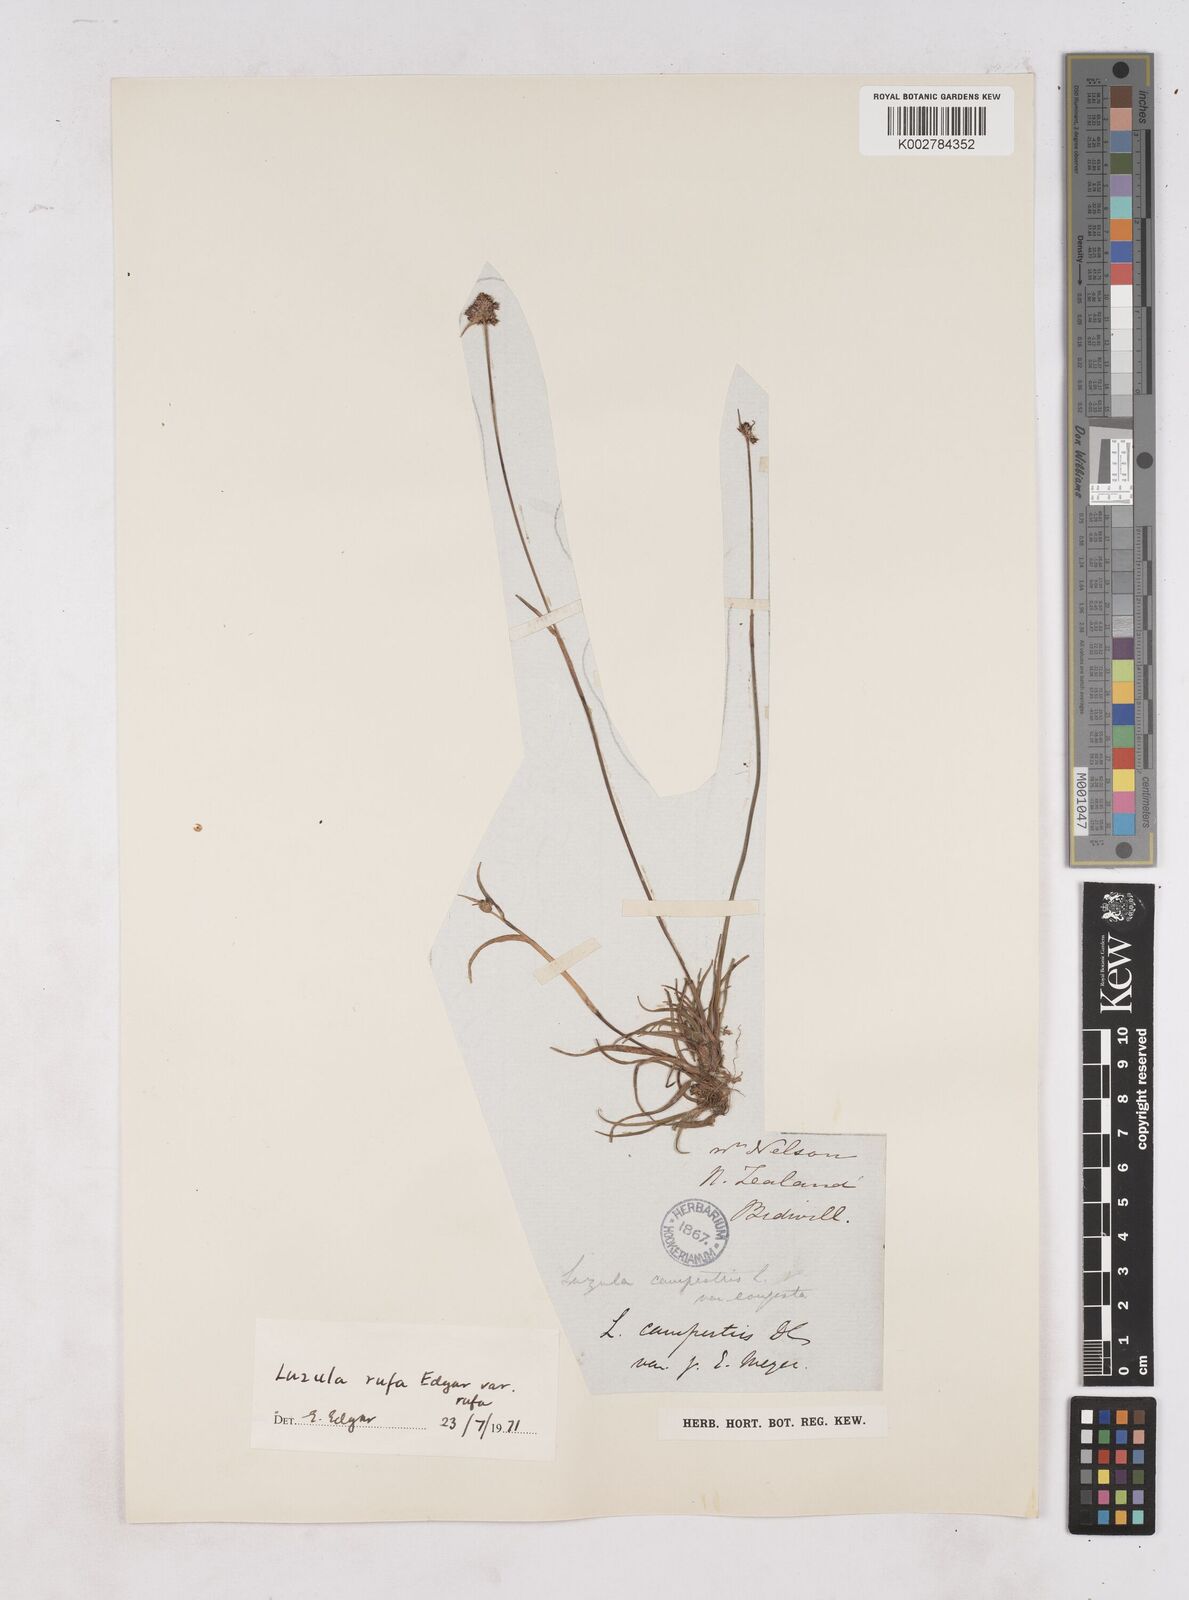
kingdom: Plantae
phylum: Tracheophyta
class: Liliopsida
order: Poales
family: Juncaceae
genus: Luzula
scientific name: Luzula rufa
